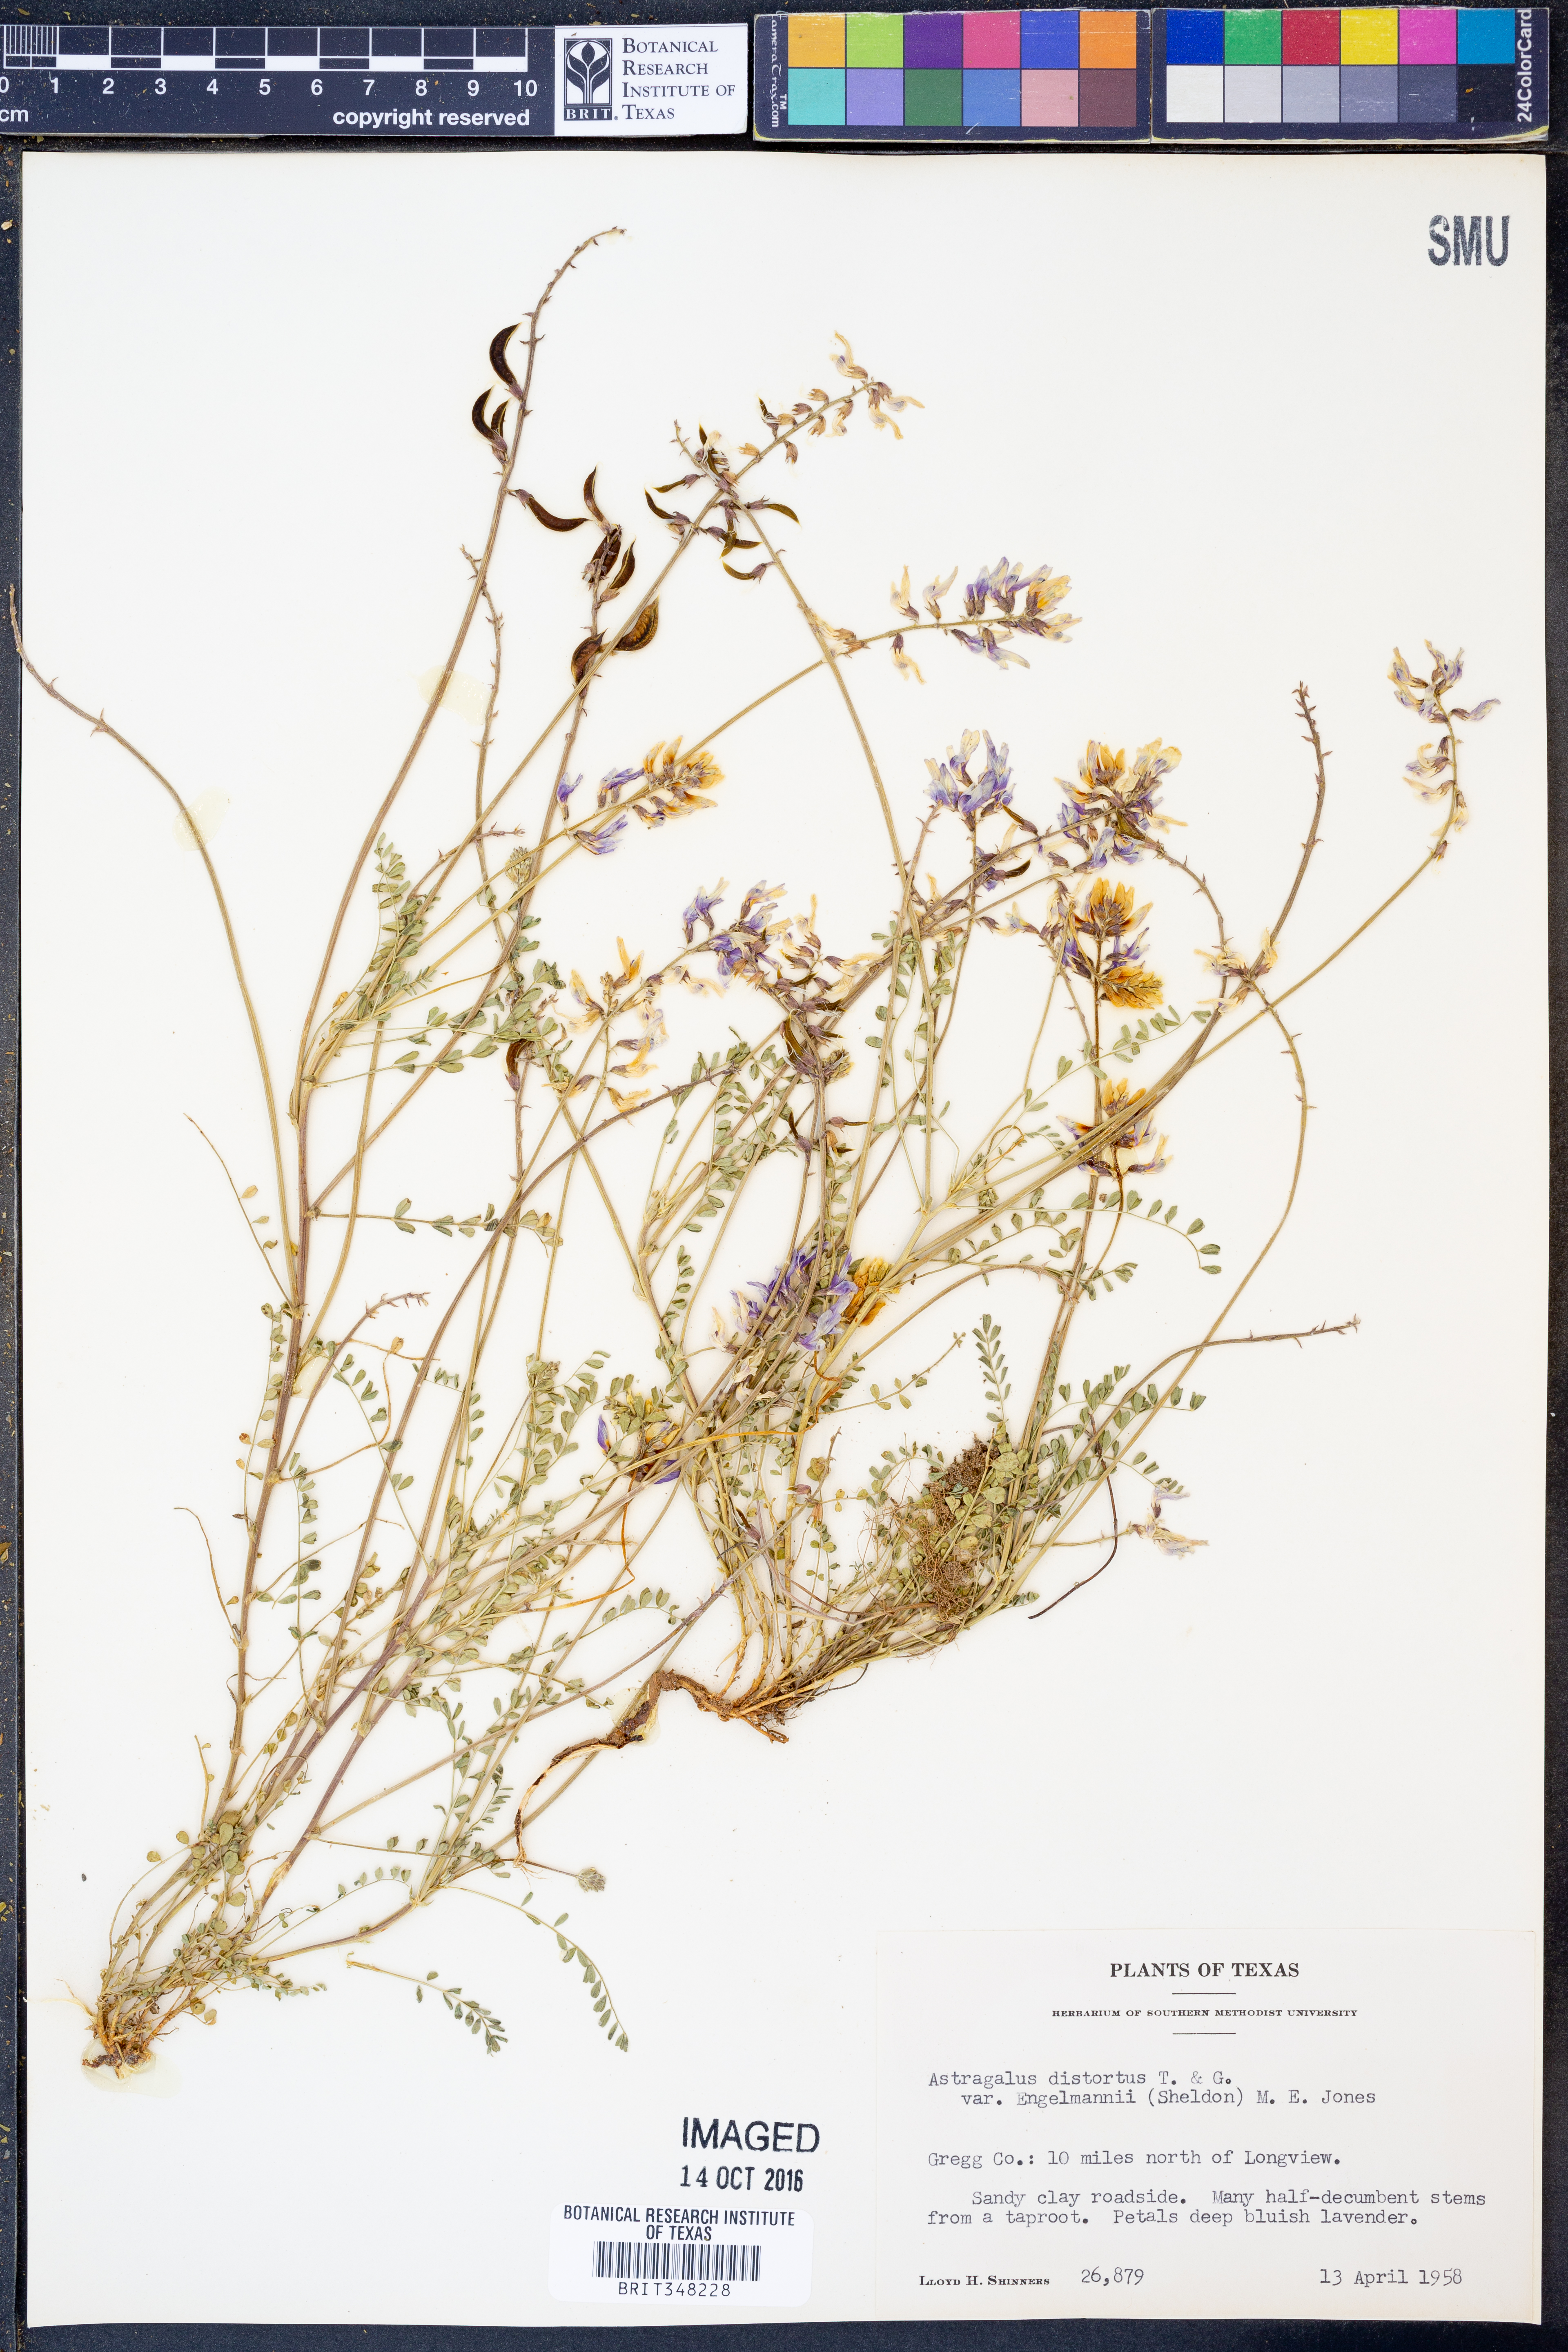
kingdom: Plantae
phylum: Tracheophyta
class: Magnoliopsida
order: Fabales
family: Fabaceae
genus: Astragalus
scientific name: Astragalus distortus
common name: Ozark milk-vetch
